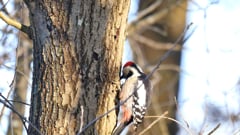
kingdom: Animalia
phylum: Chordata
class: Aves
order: Piciformes
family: Picidae
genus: Dendrocoptes
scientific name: Dendrocoptes medius
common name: Middle spotted woodpecker
